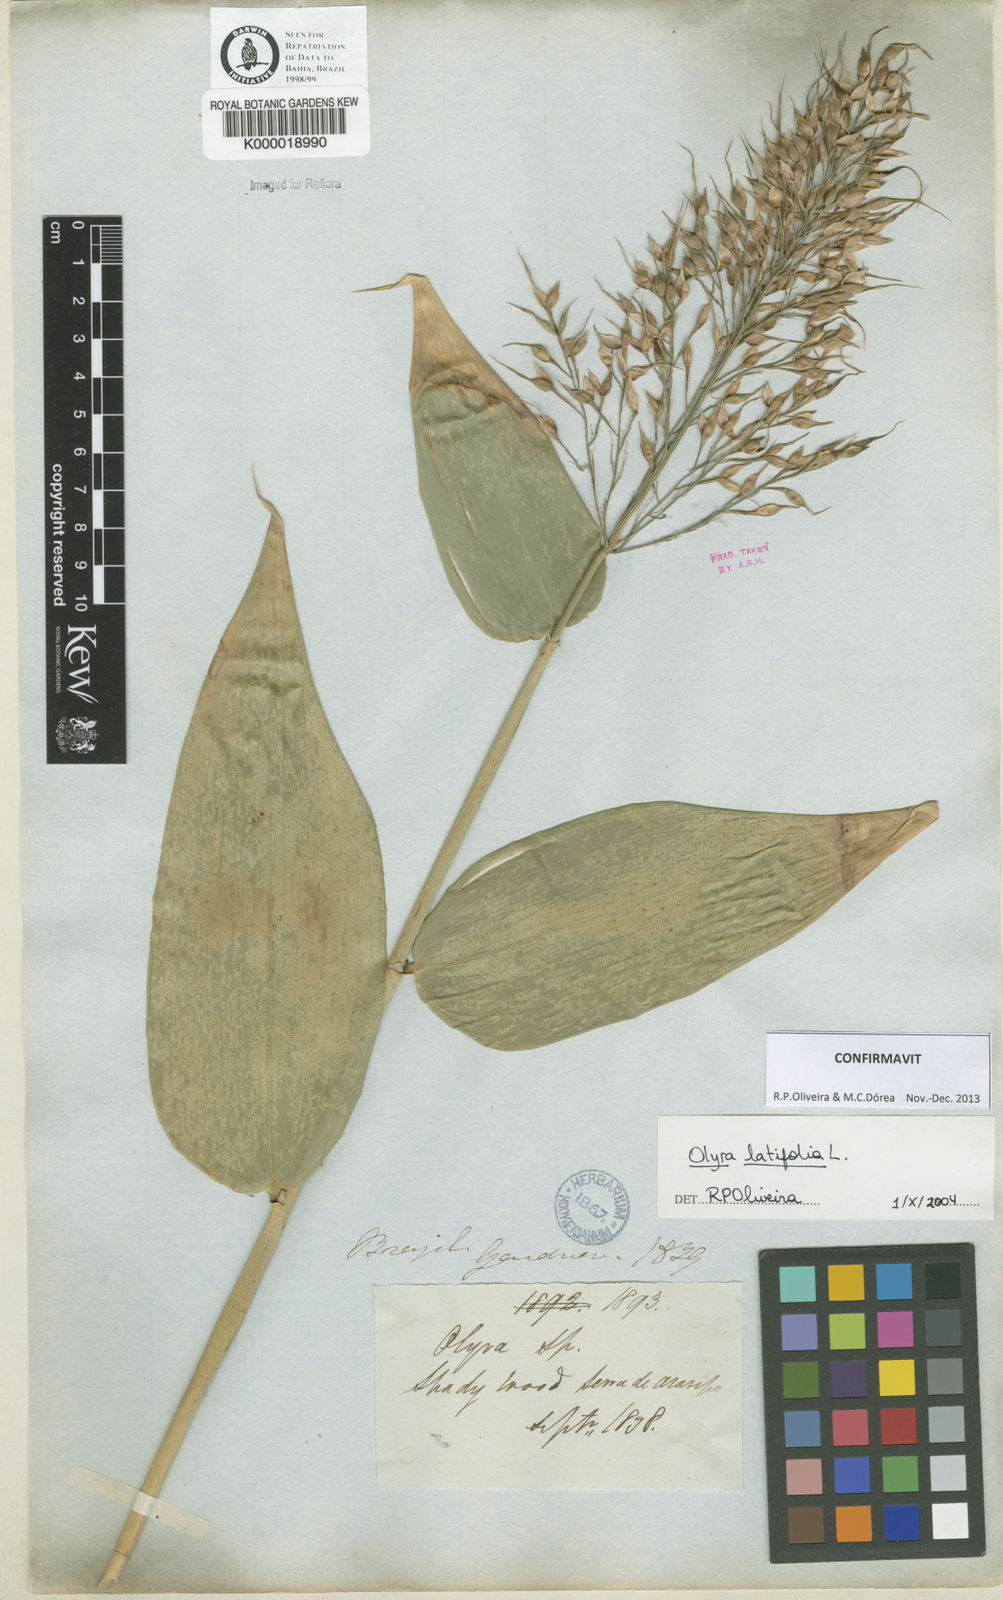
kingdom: Plantae
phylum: Tracheophyta
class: Liliopsida
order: Poales
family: Poaceae
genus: Olyra
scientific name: Olyra
